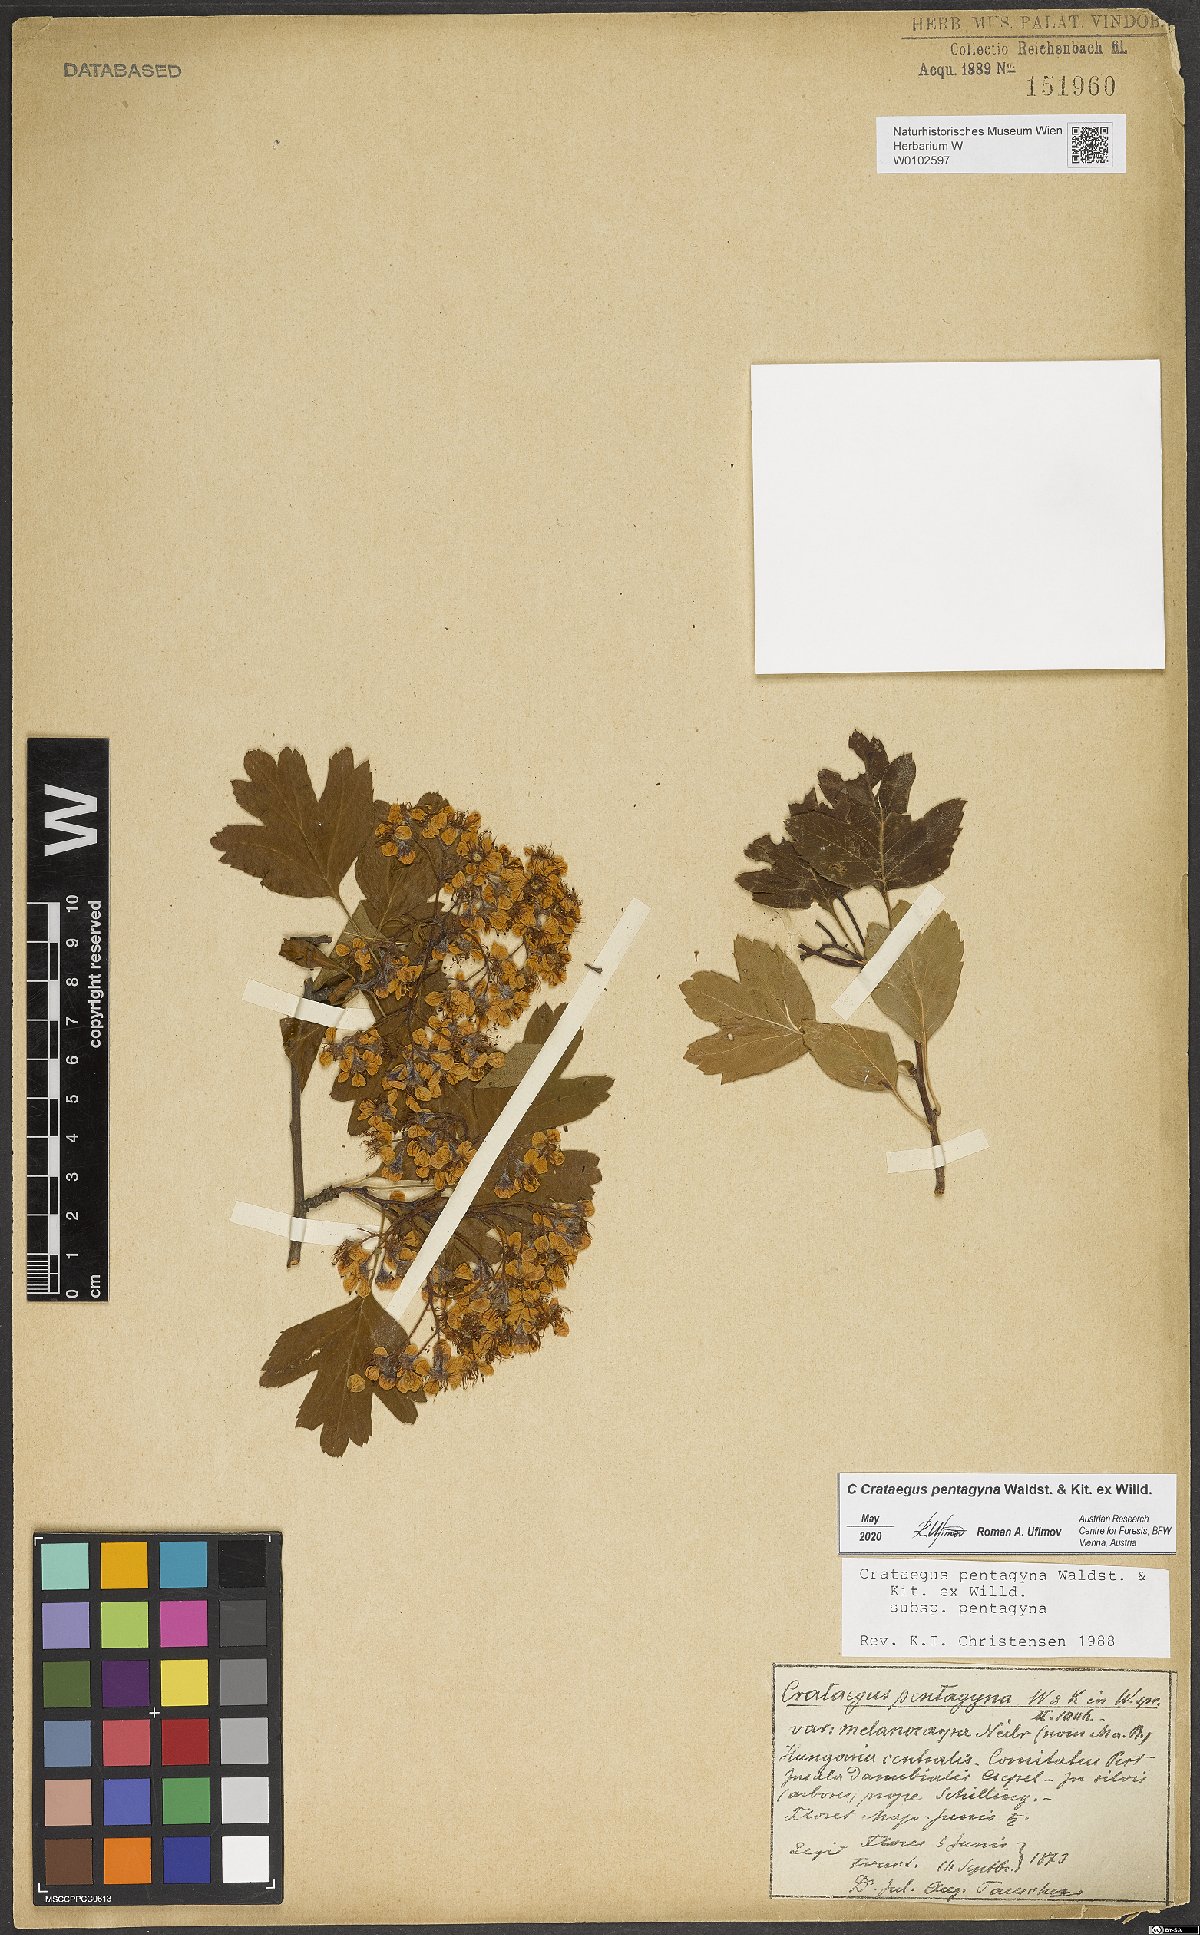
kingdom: Plantae
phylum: Tracheophyta
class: Magnoliopsida
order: Rosales
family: Rosaceae
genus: Crataegus
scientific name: Crataegus pentagyna
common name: Small-flowered black hawthorn
